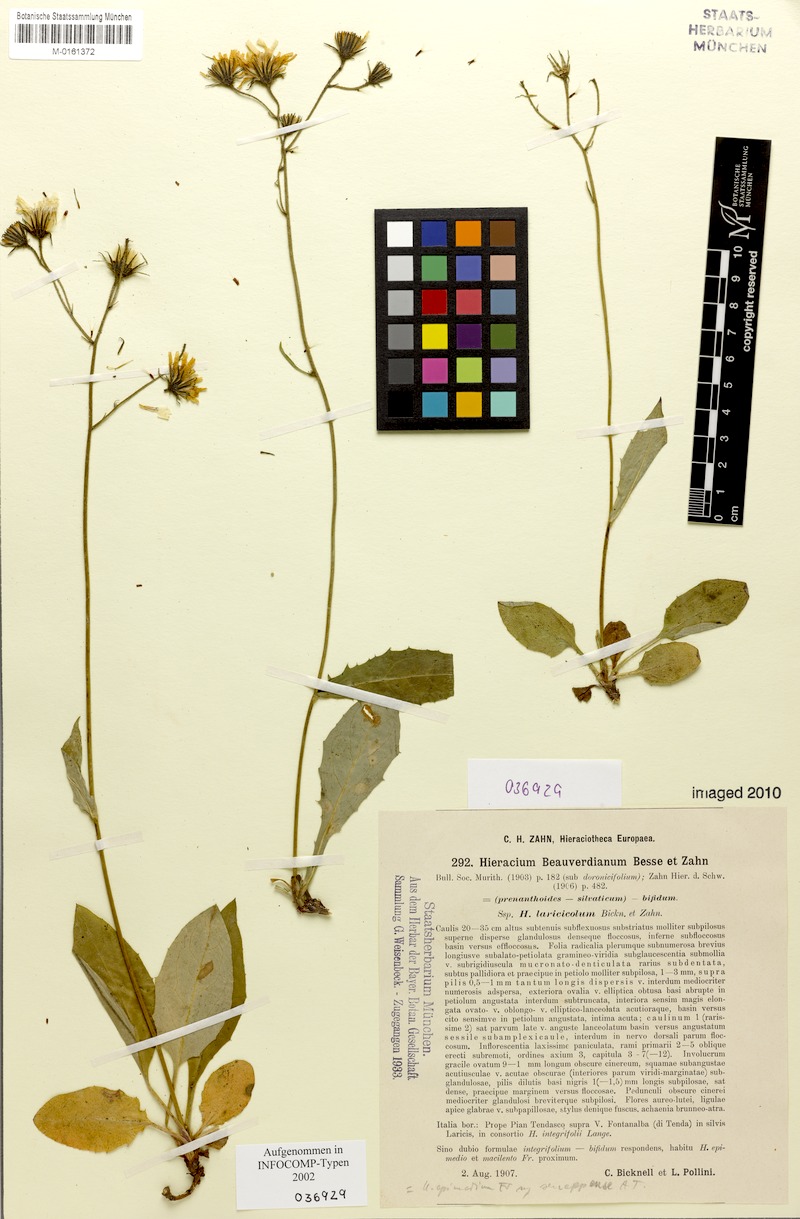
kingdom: Plantae
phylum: Tracheophyta
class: Magnoliopsida
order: Asterales
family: Asteraceae
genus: Hieracium
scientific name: Hieracium froelichianum
